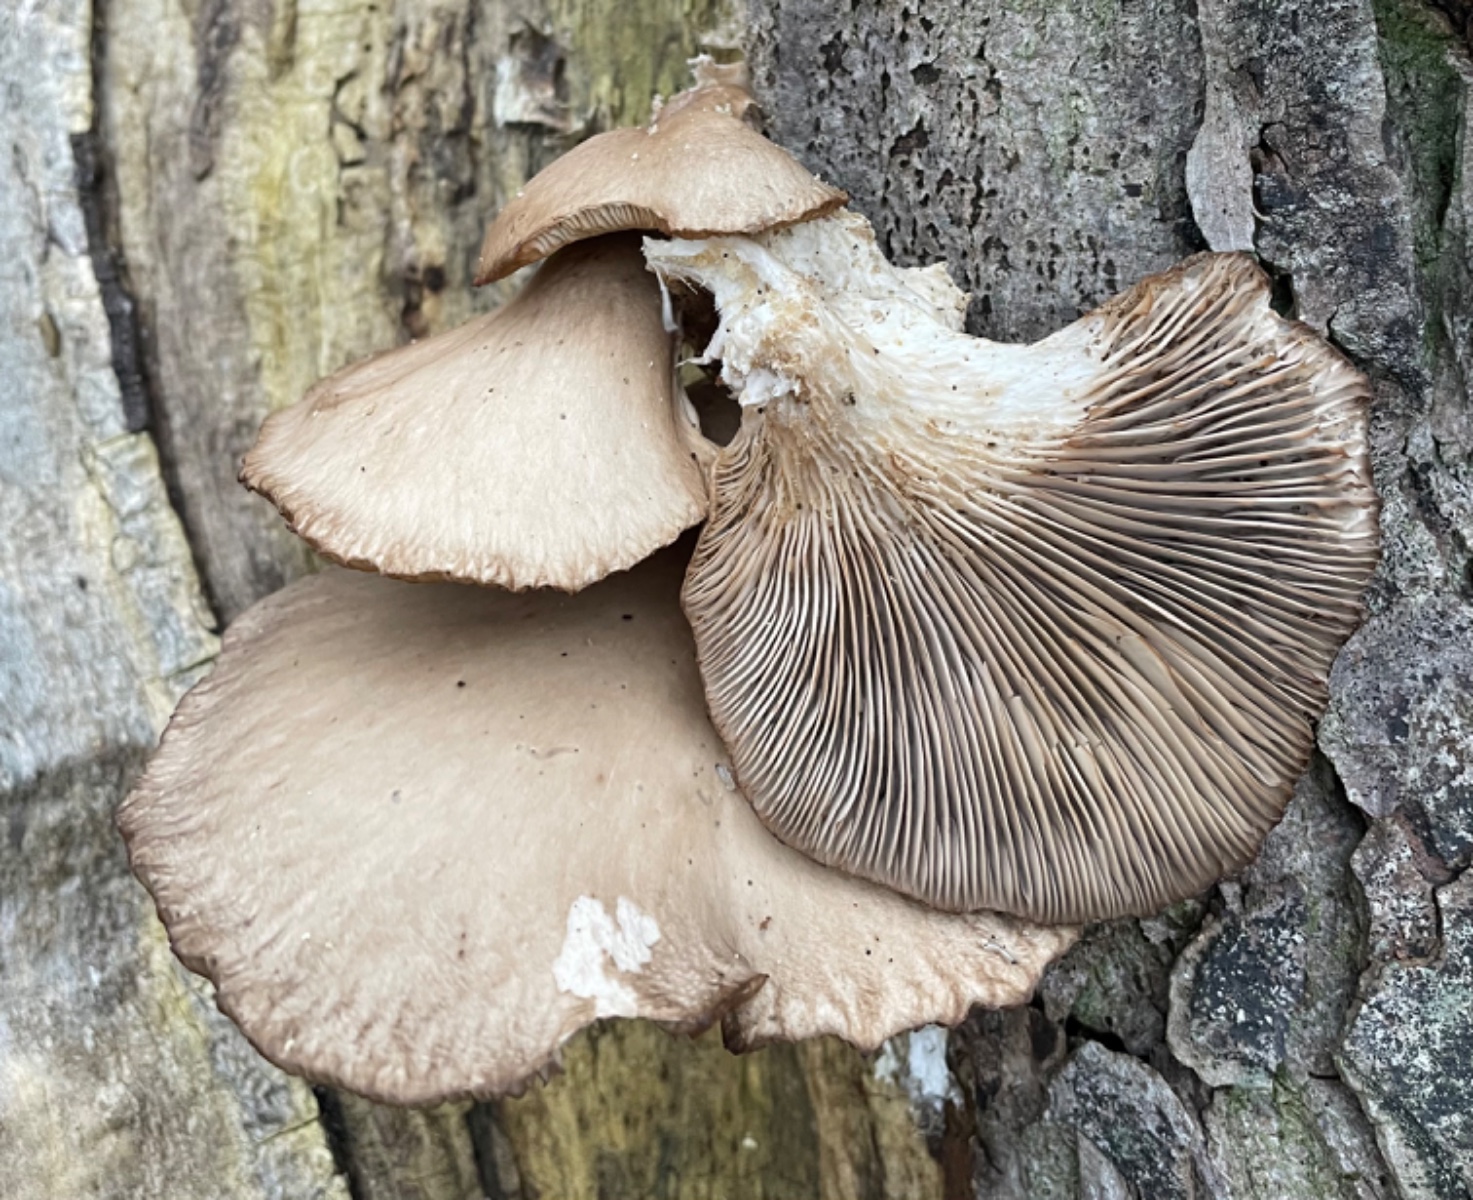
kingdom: Fungi
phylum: Basidiomycota
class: Agaricomycetes
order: Agaricales
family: Pleurotaceae
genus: Pleurotus
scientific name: Pleurotus ostreatus
